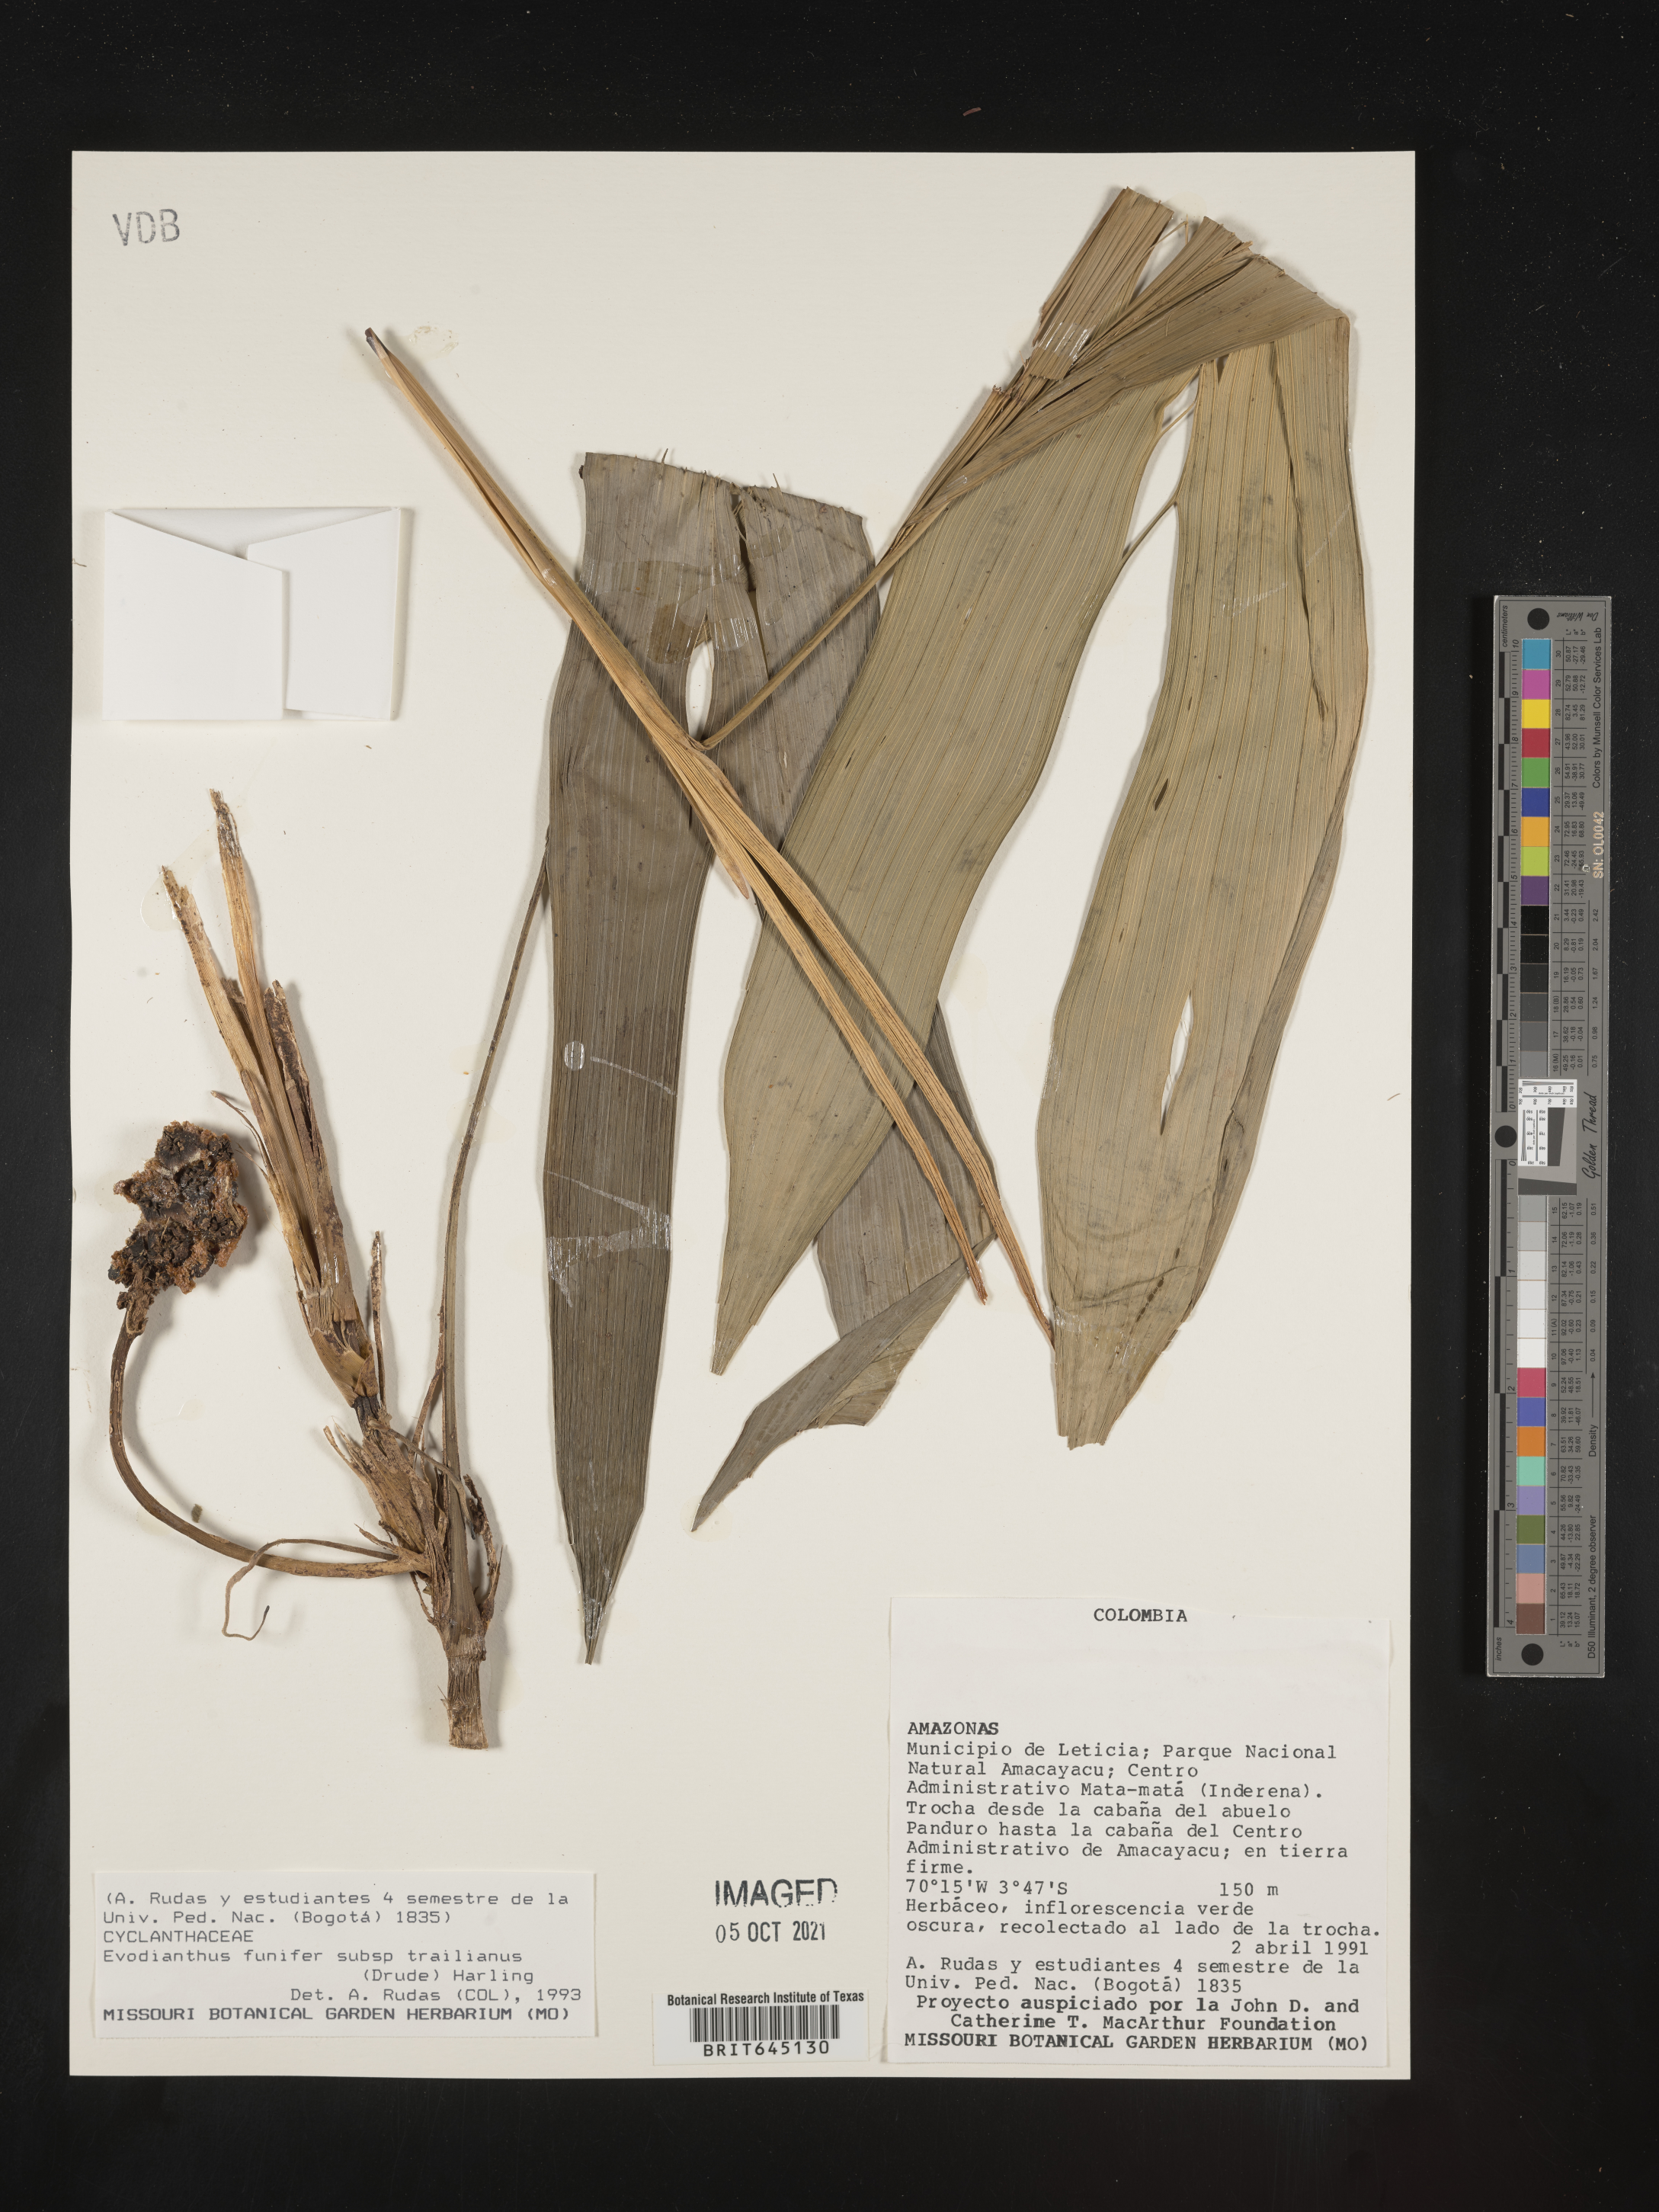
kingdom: Plantae
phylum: Tracheophyta
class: Liliopsida
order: Pandanales
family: Cyclanthaceae
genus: Evodianthus
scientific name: Evodianthus funifer
